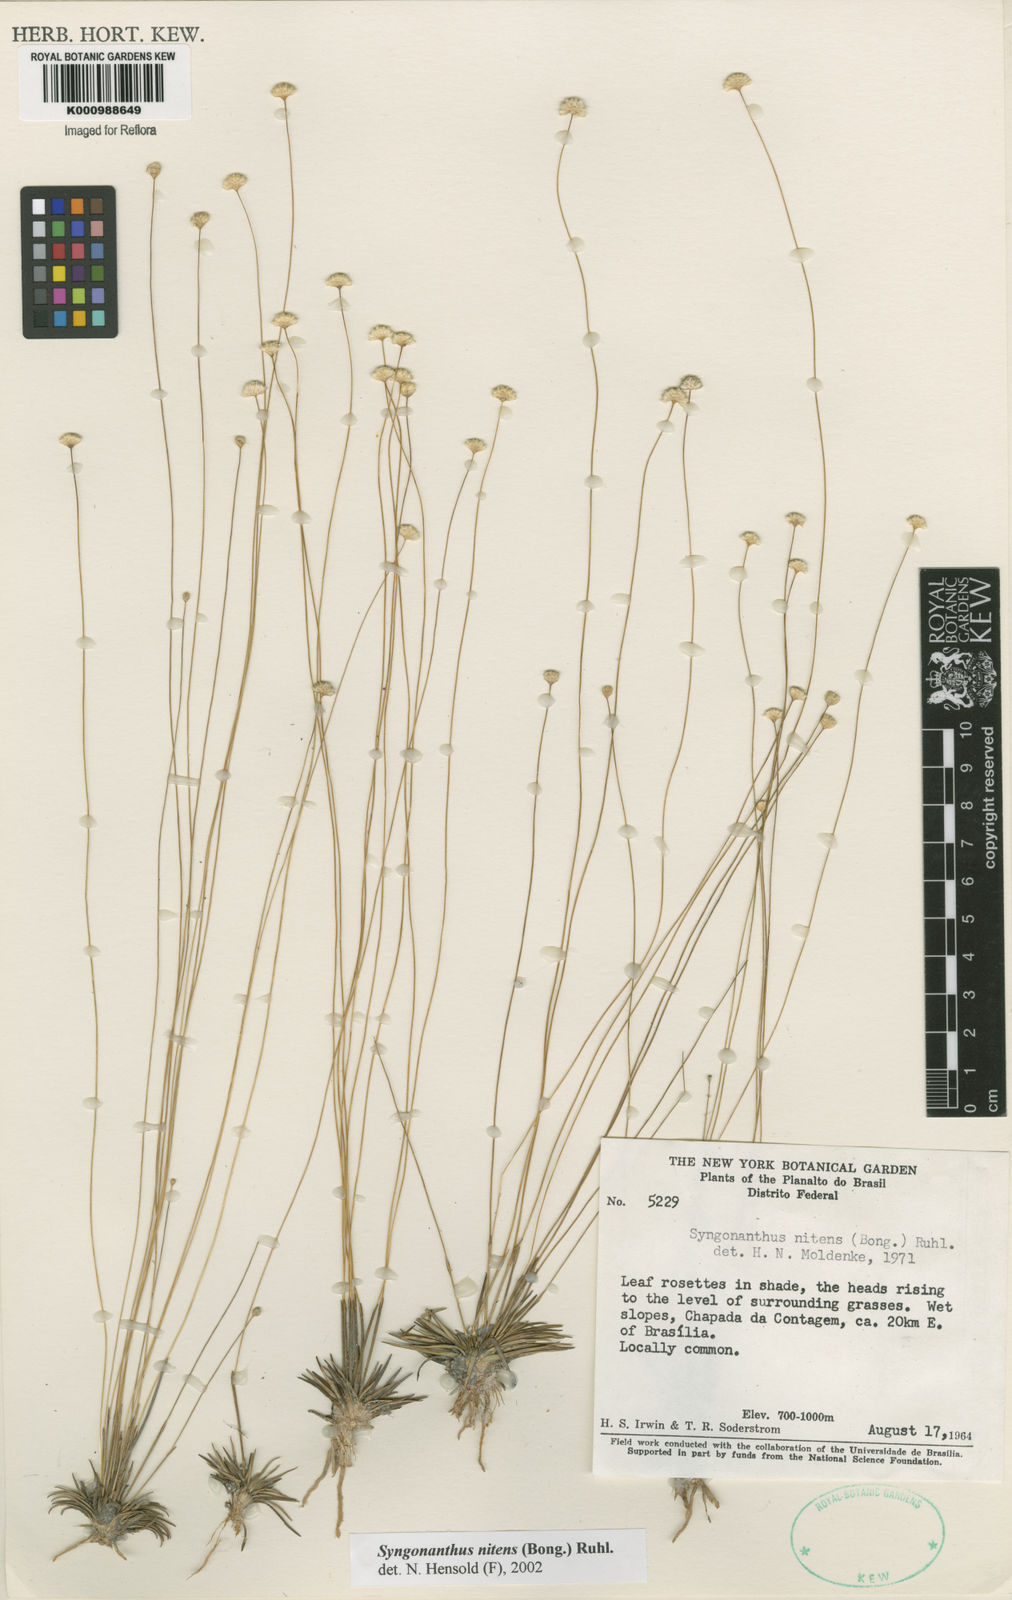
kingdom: Plantae
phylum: Tracheophyta
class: Liliopsida
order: Poales
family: Eriocaulaceae
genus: Syngonanthus
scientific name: Syngonanthus nitens
